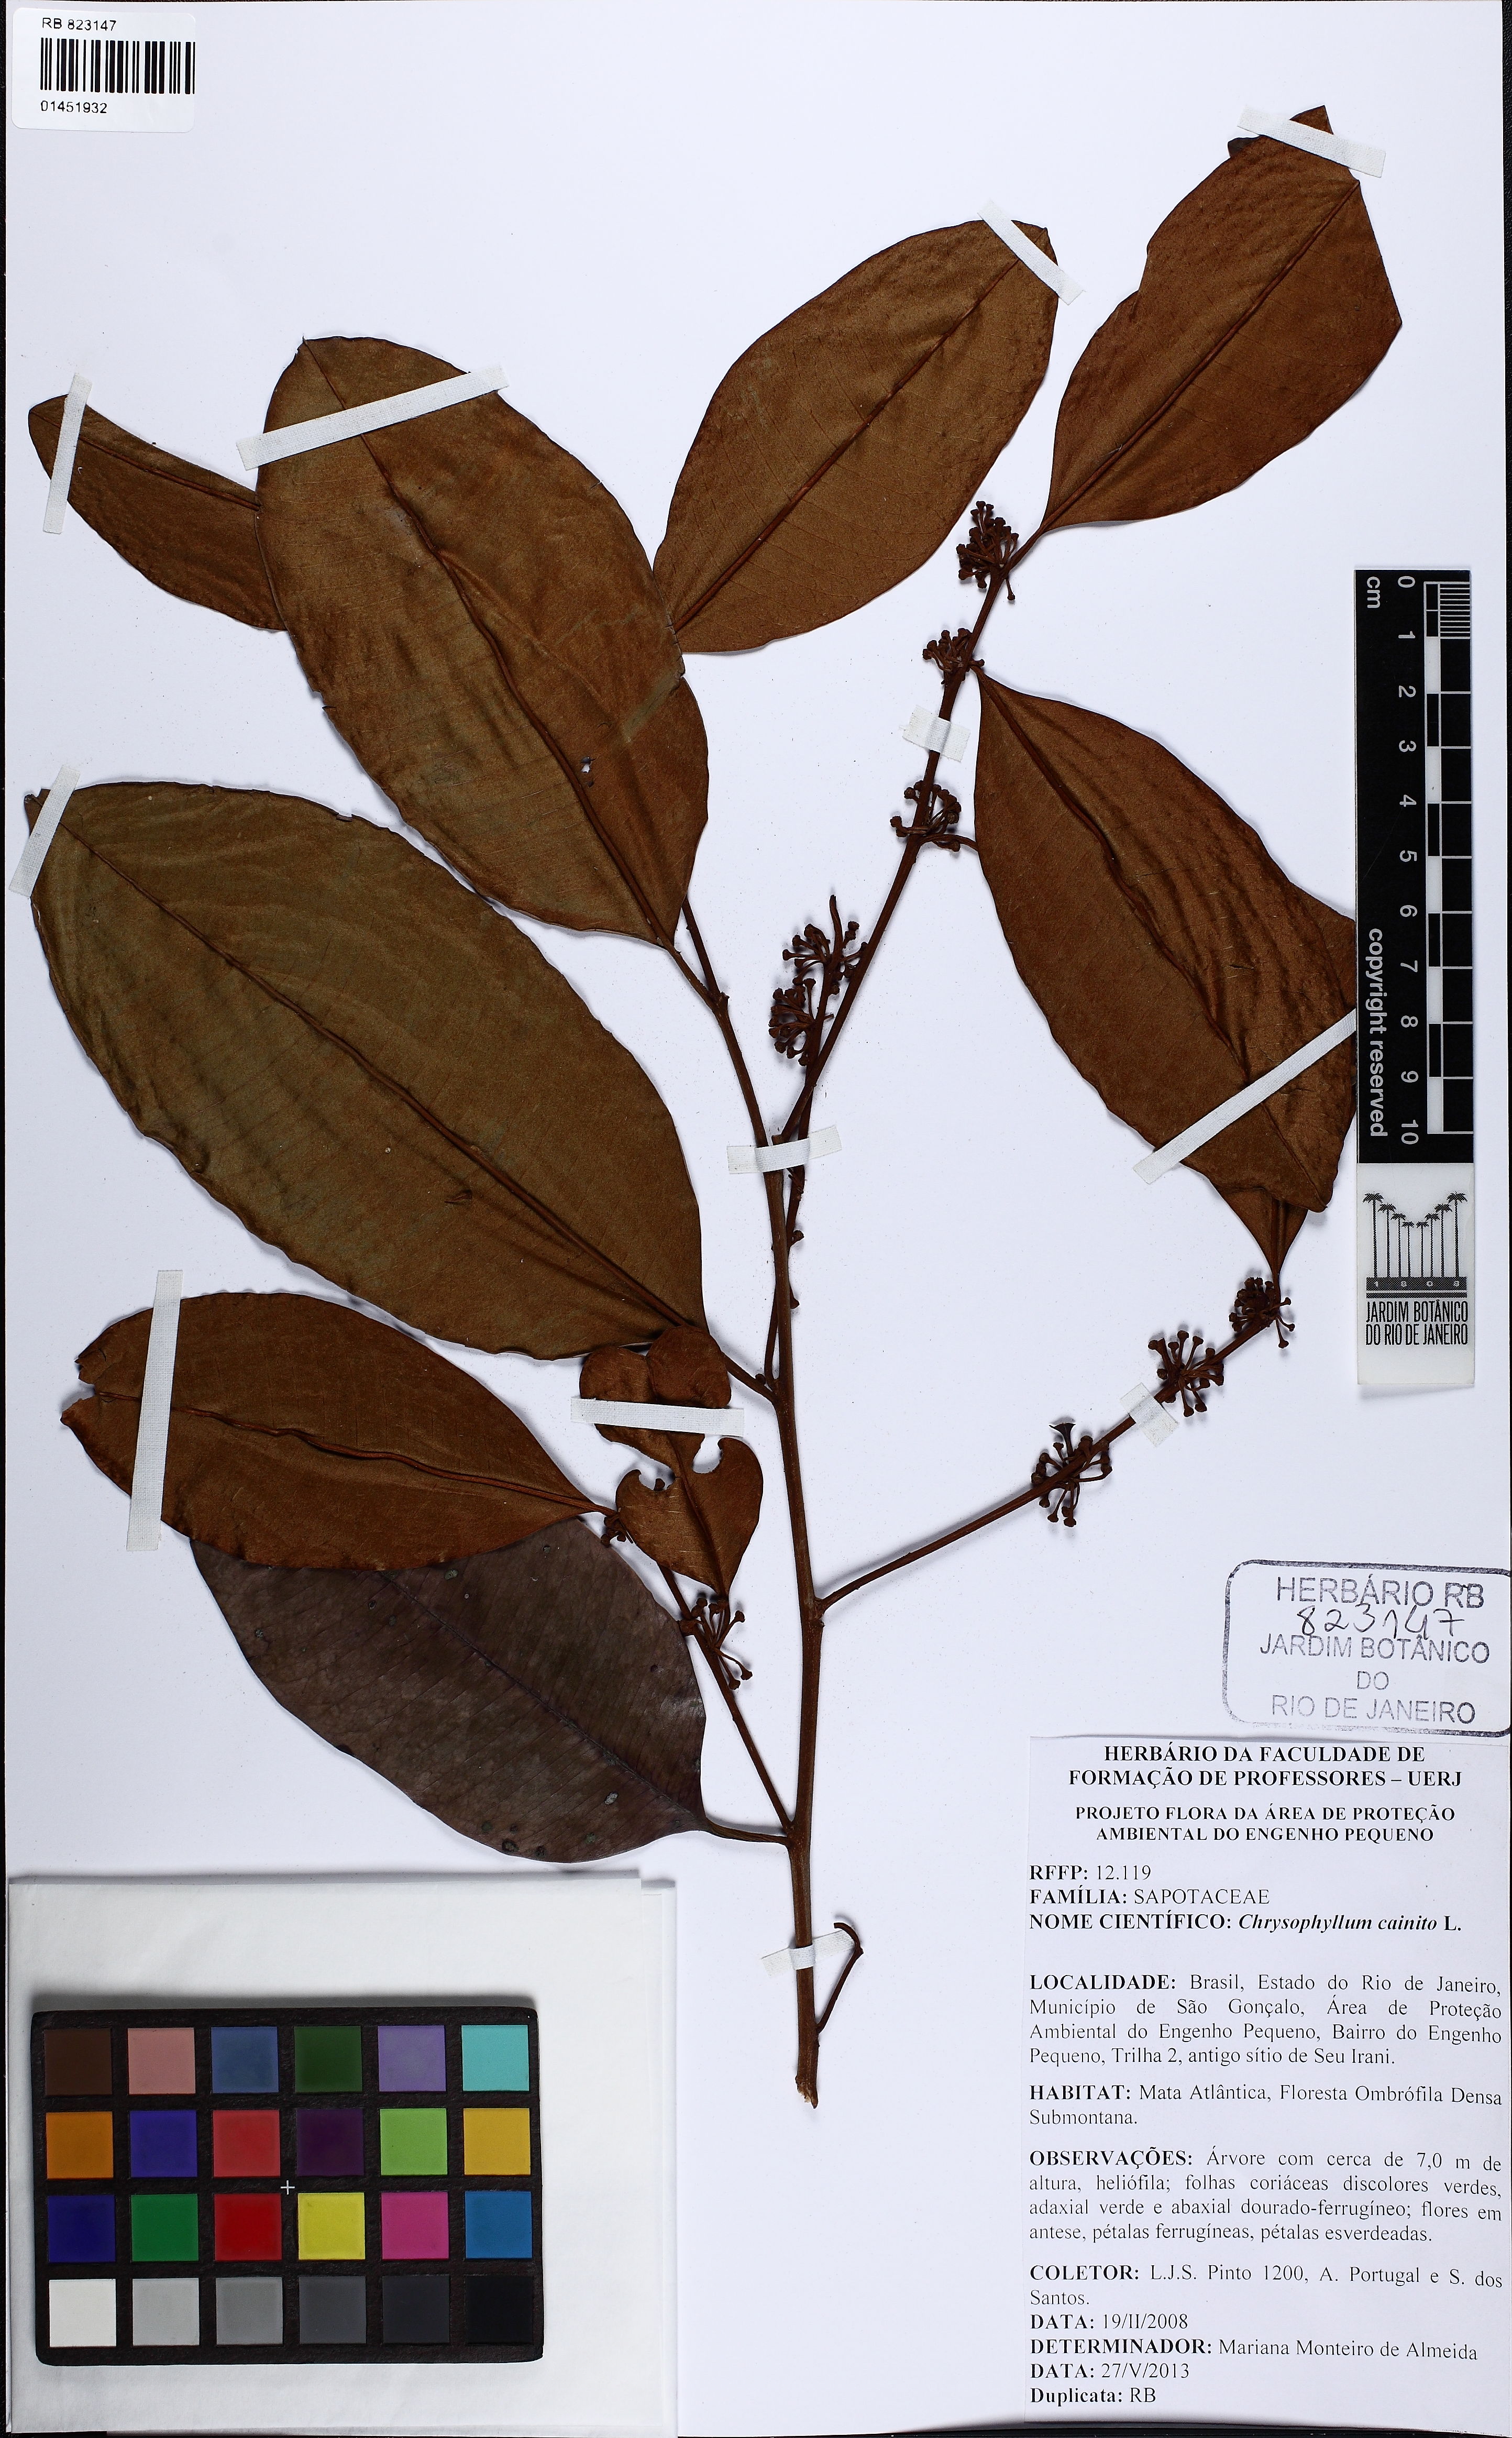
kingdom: Plantae
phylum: Tracheophyta
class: Magnoliopsida
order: Ericales
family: Sapotaceae
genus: Chrysophyllum
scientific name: Chrysophyllum cainito
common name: Star-apple
